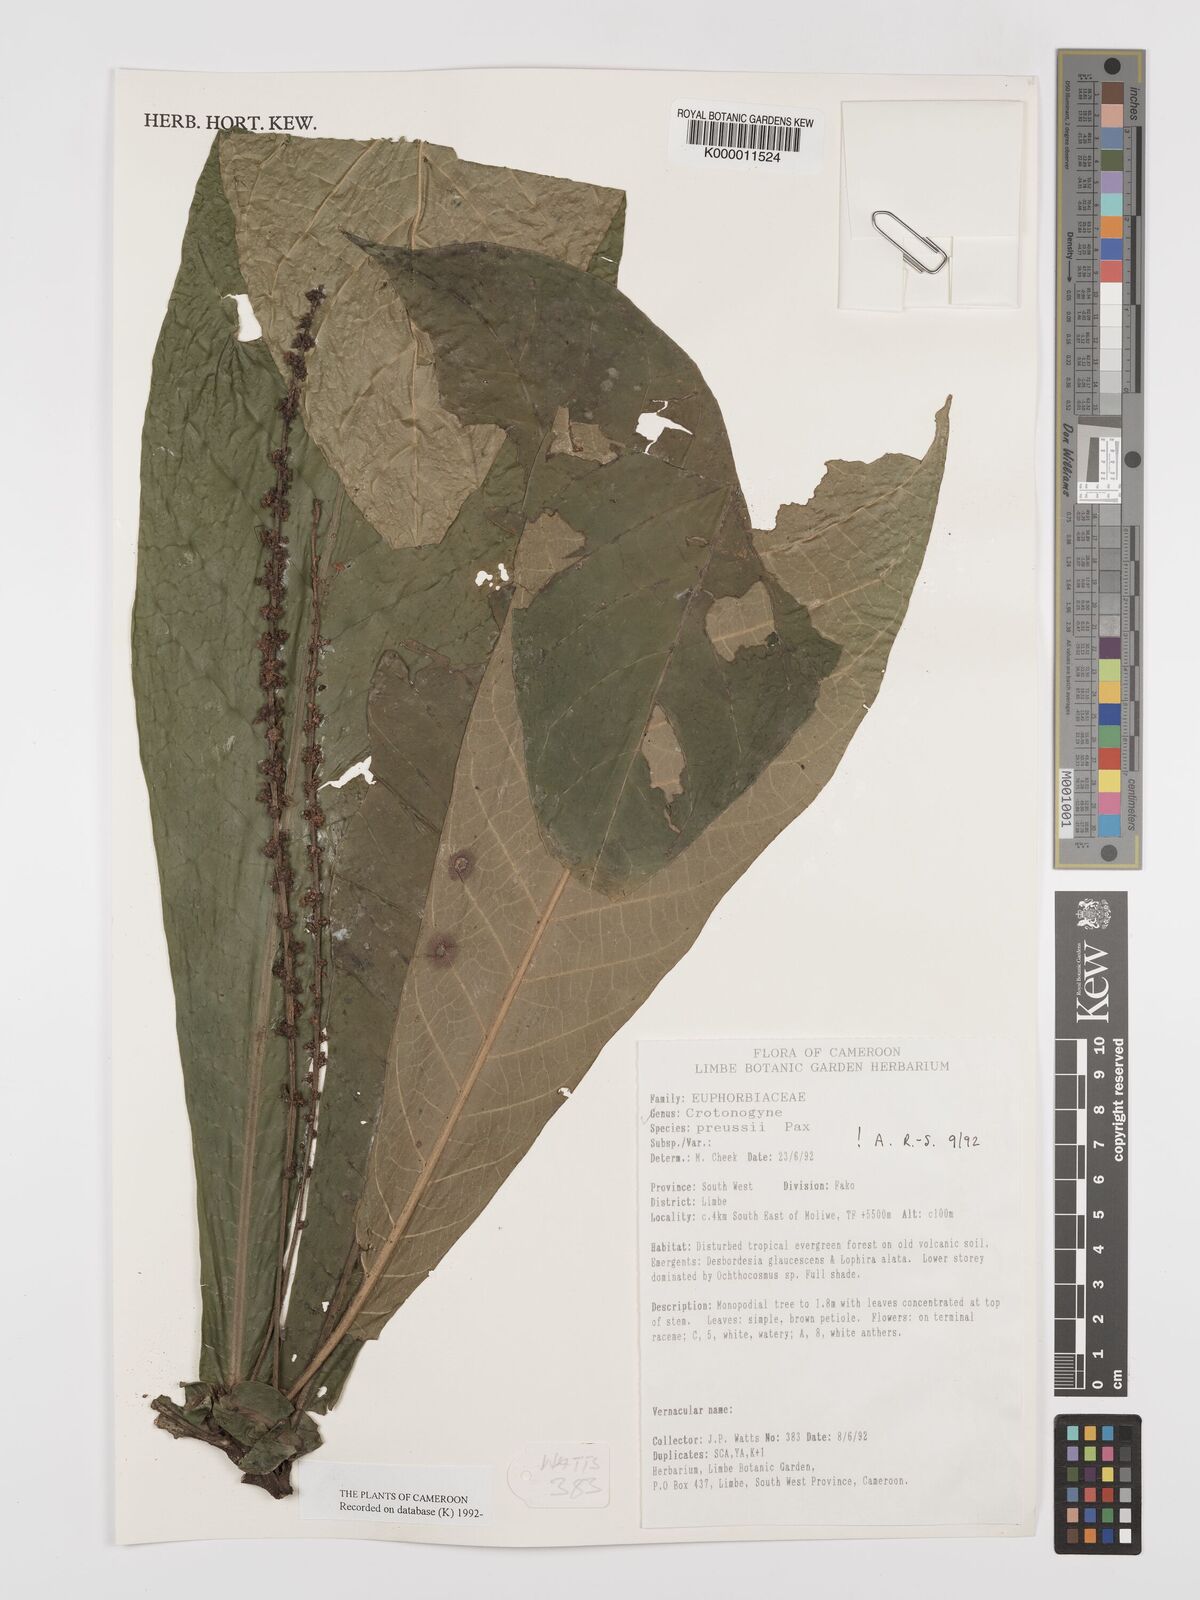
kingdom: Plantae
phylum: Tracheophyta
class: Magnoliopsida
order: Malpighiales
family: Euphorbiaceae
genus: Crotonogyne
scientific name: Crotonogyne preussii
